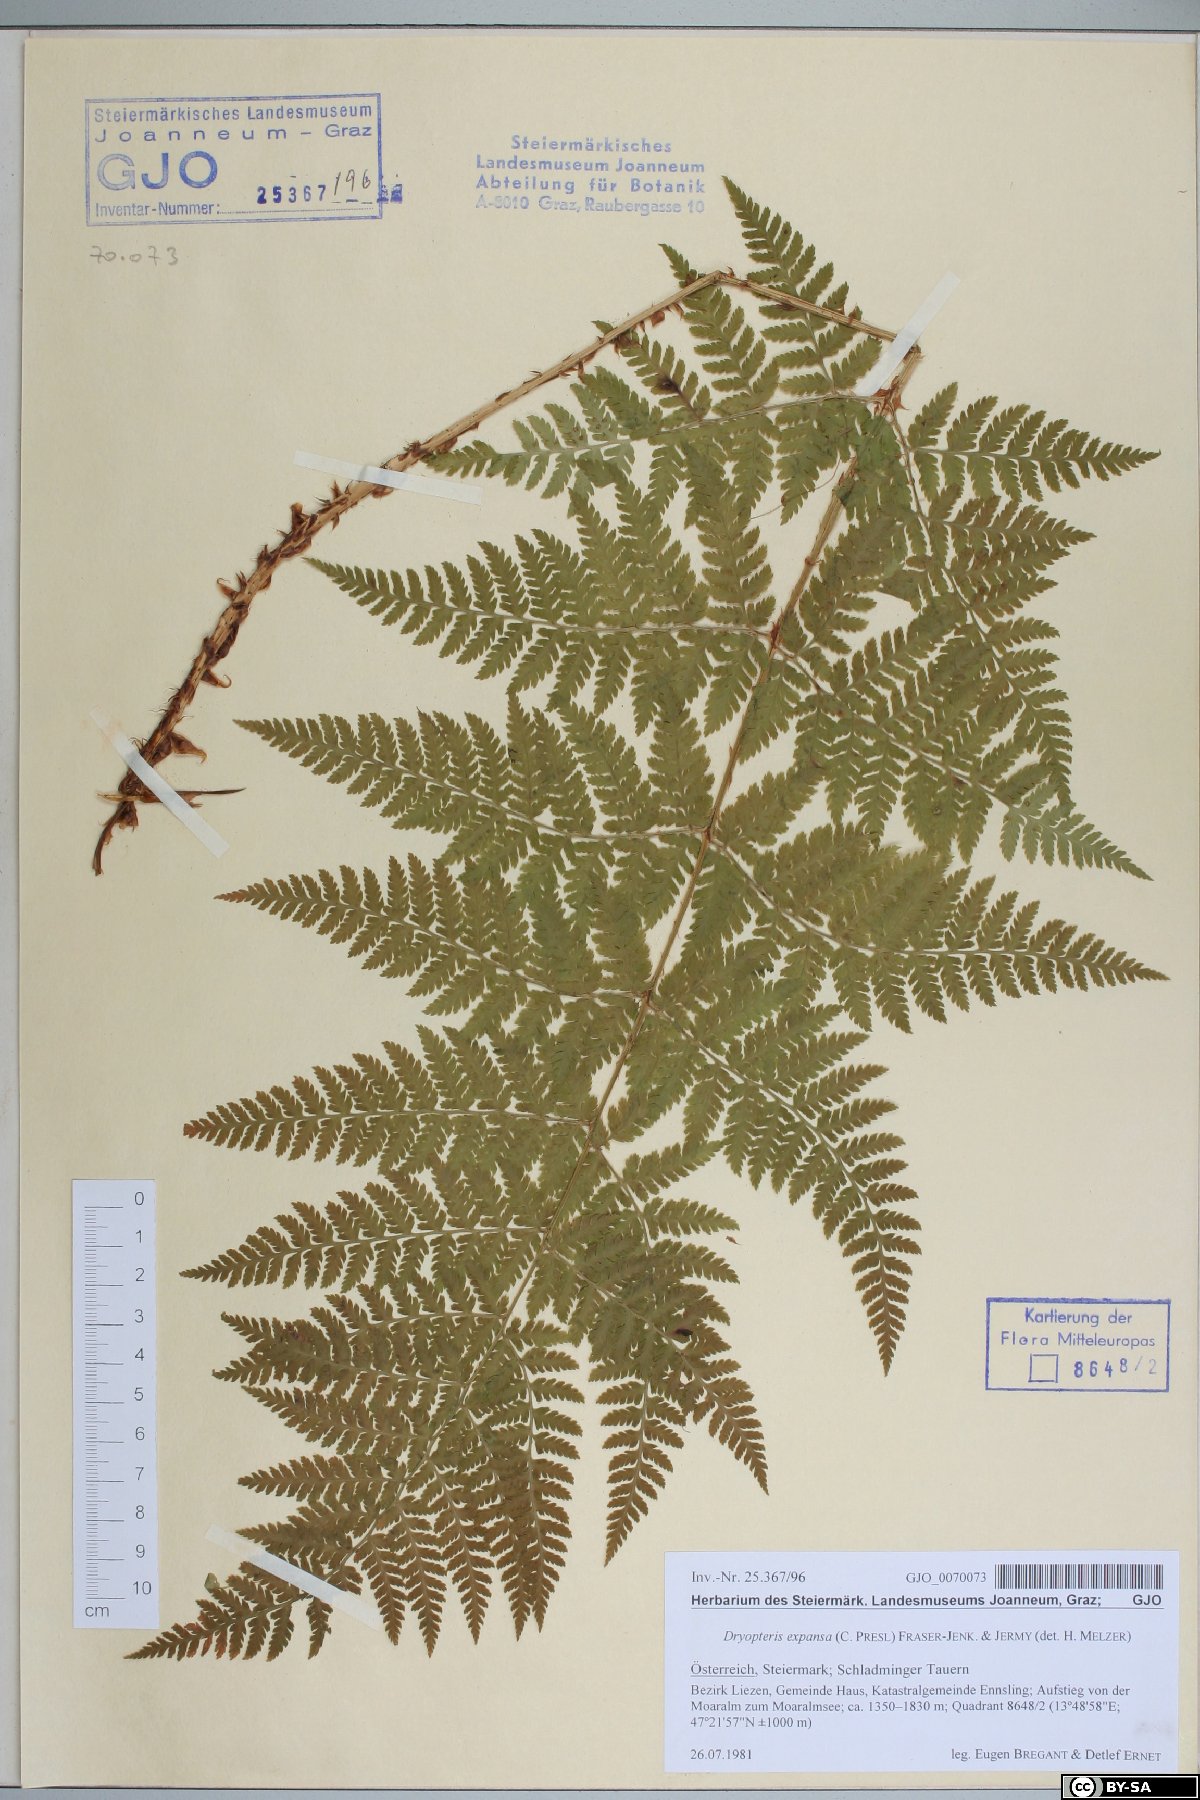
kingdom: Plantae
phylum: Tracheophyta
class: Polypodiopsida
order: Polypodiales
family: Dryopteridaceae
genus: Dryopteris
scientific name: Dryopteris expansa
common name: Northern buckler fern
